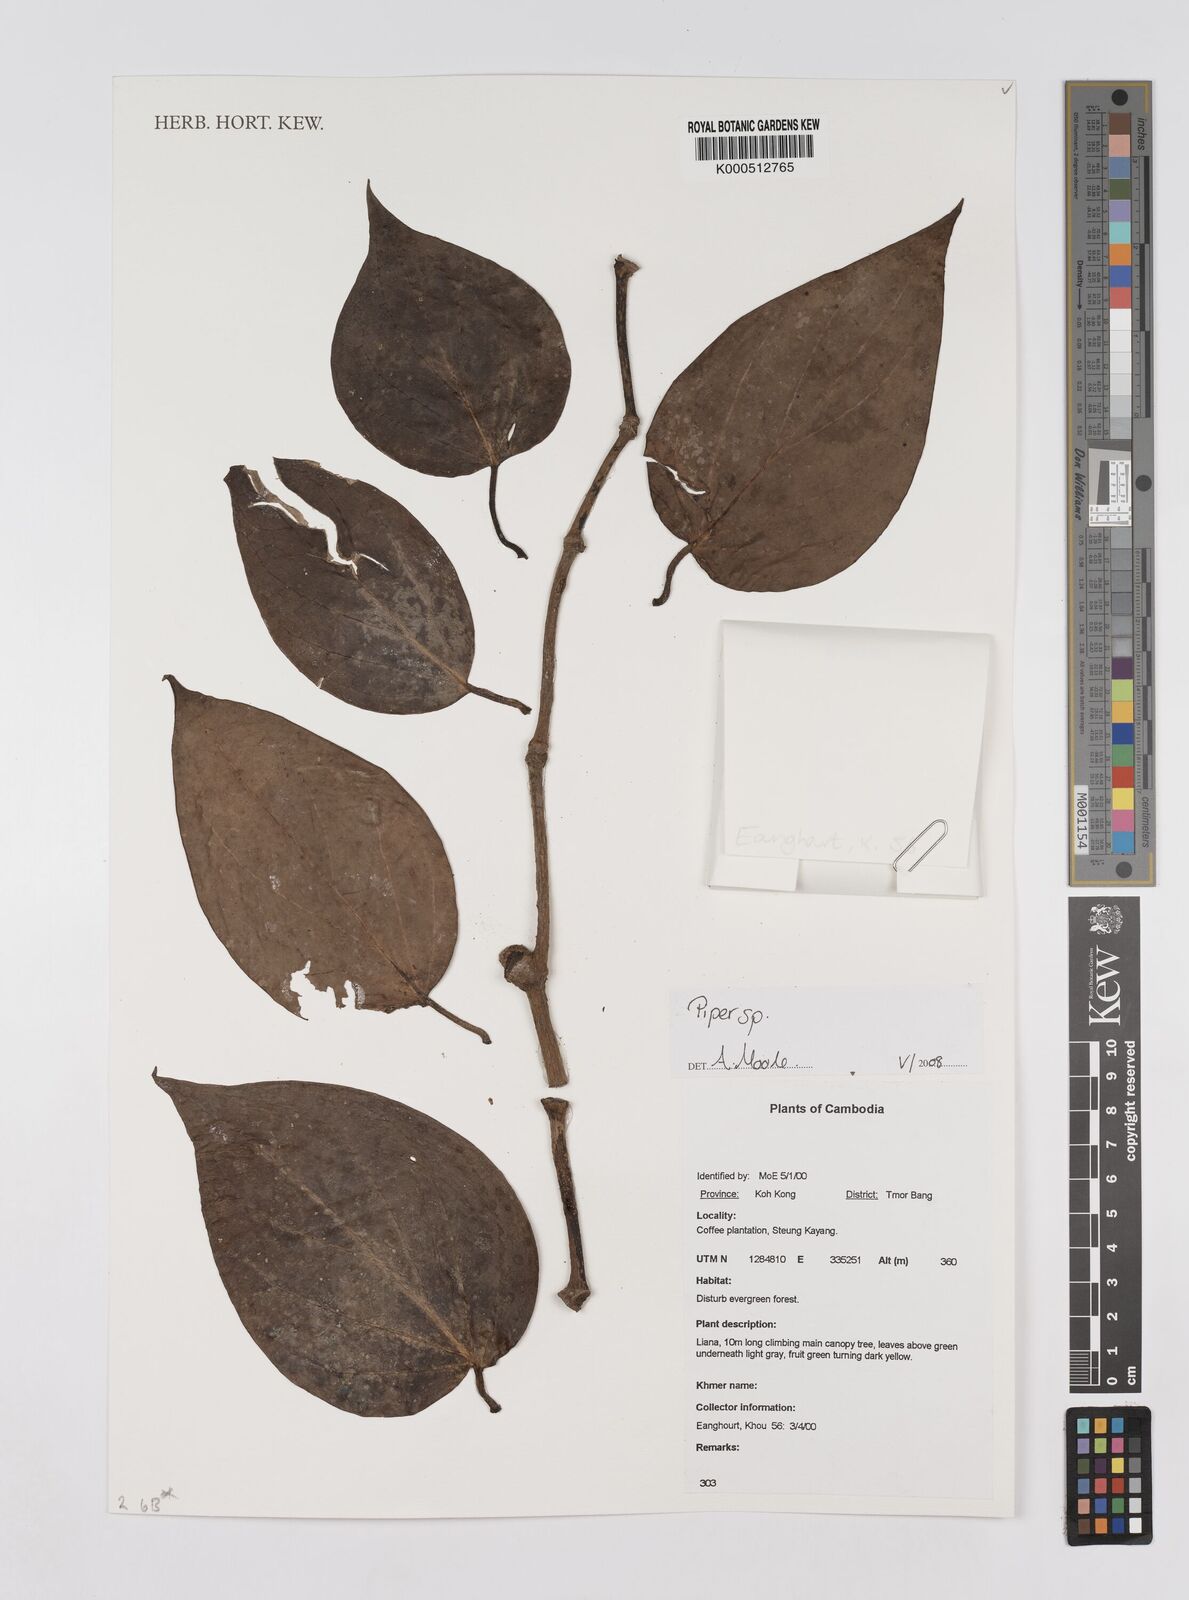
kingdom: Plantae
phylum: Tracheophyta
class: Magnoliopsida
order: Piperales
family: Piperaceae
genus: Piper
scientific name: Piper
